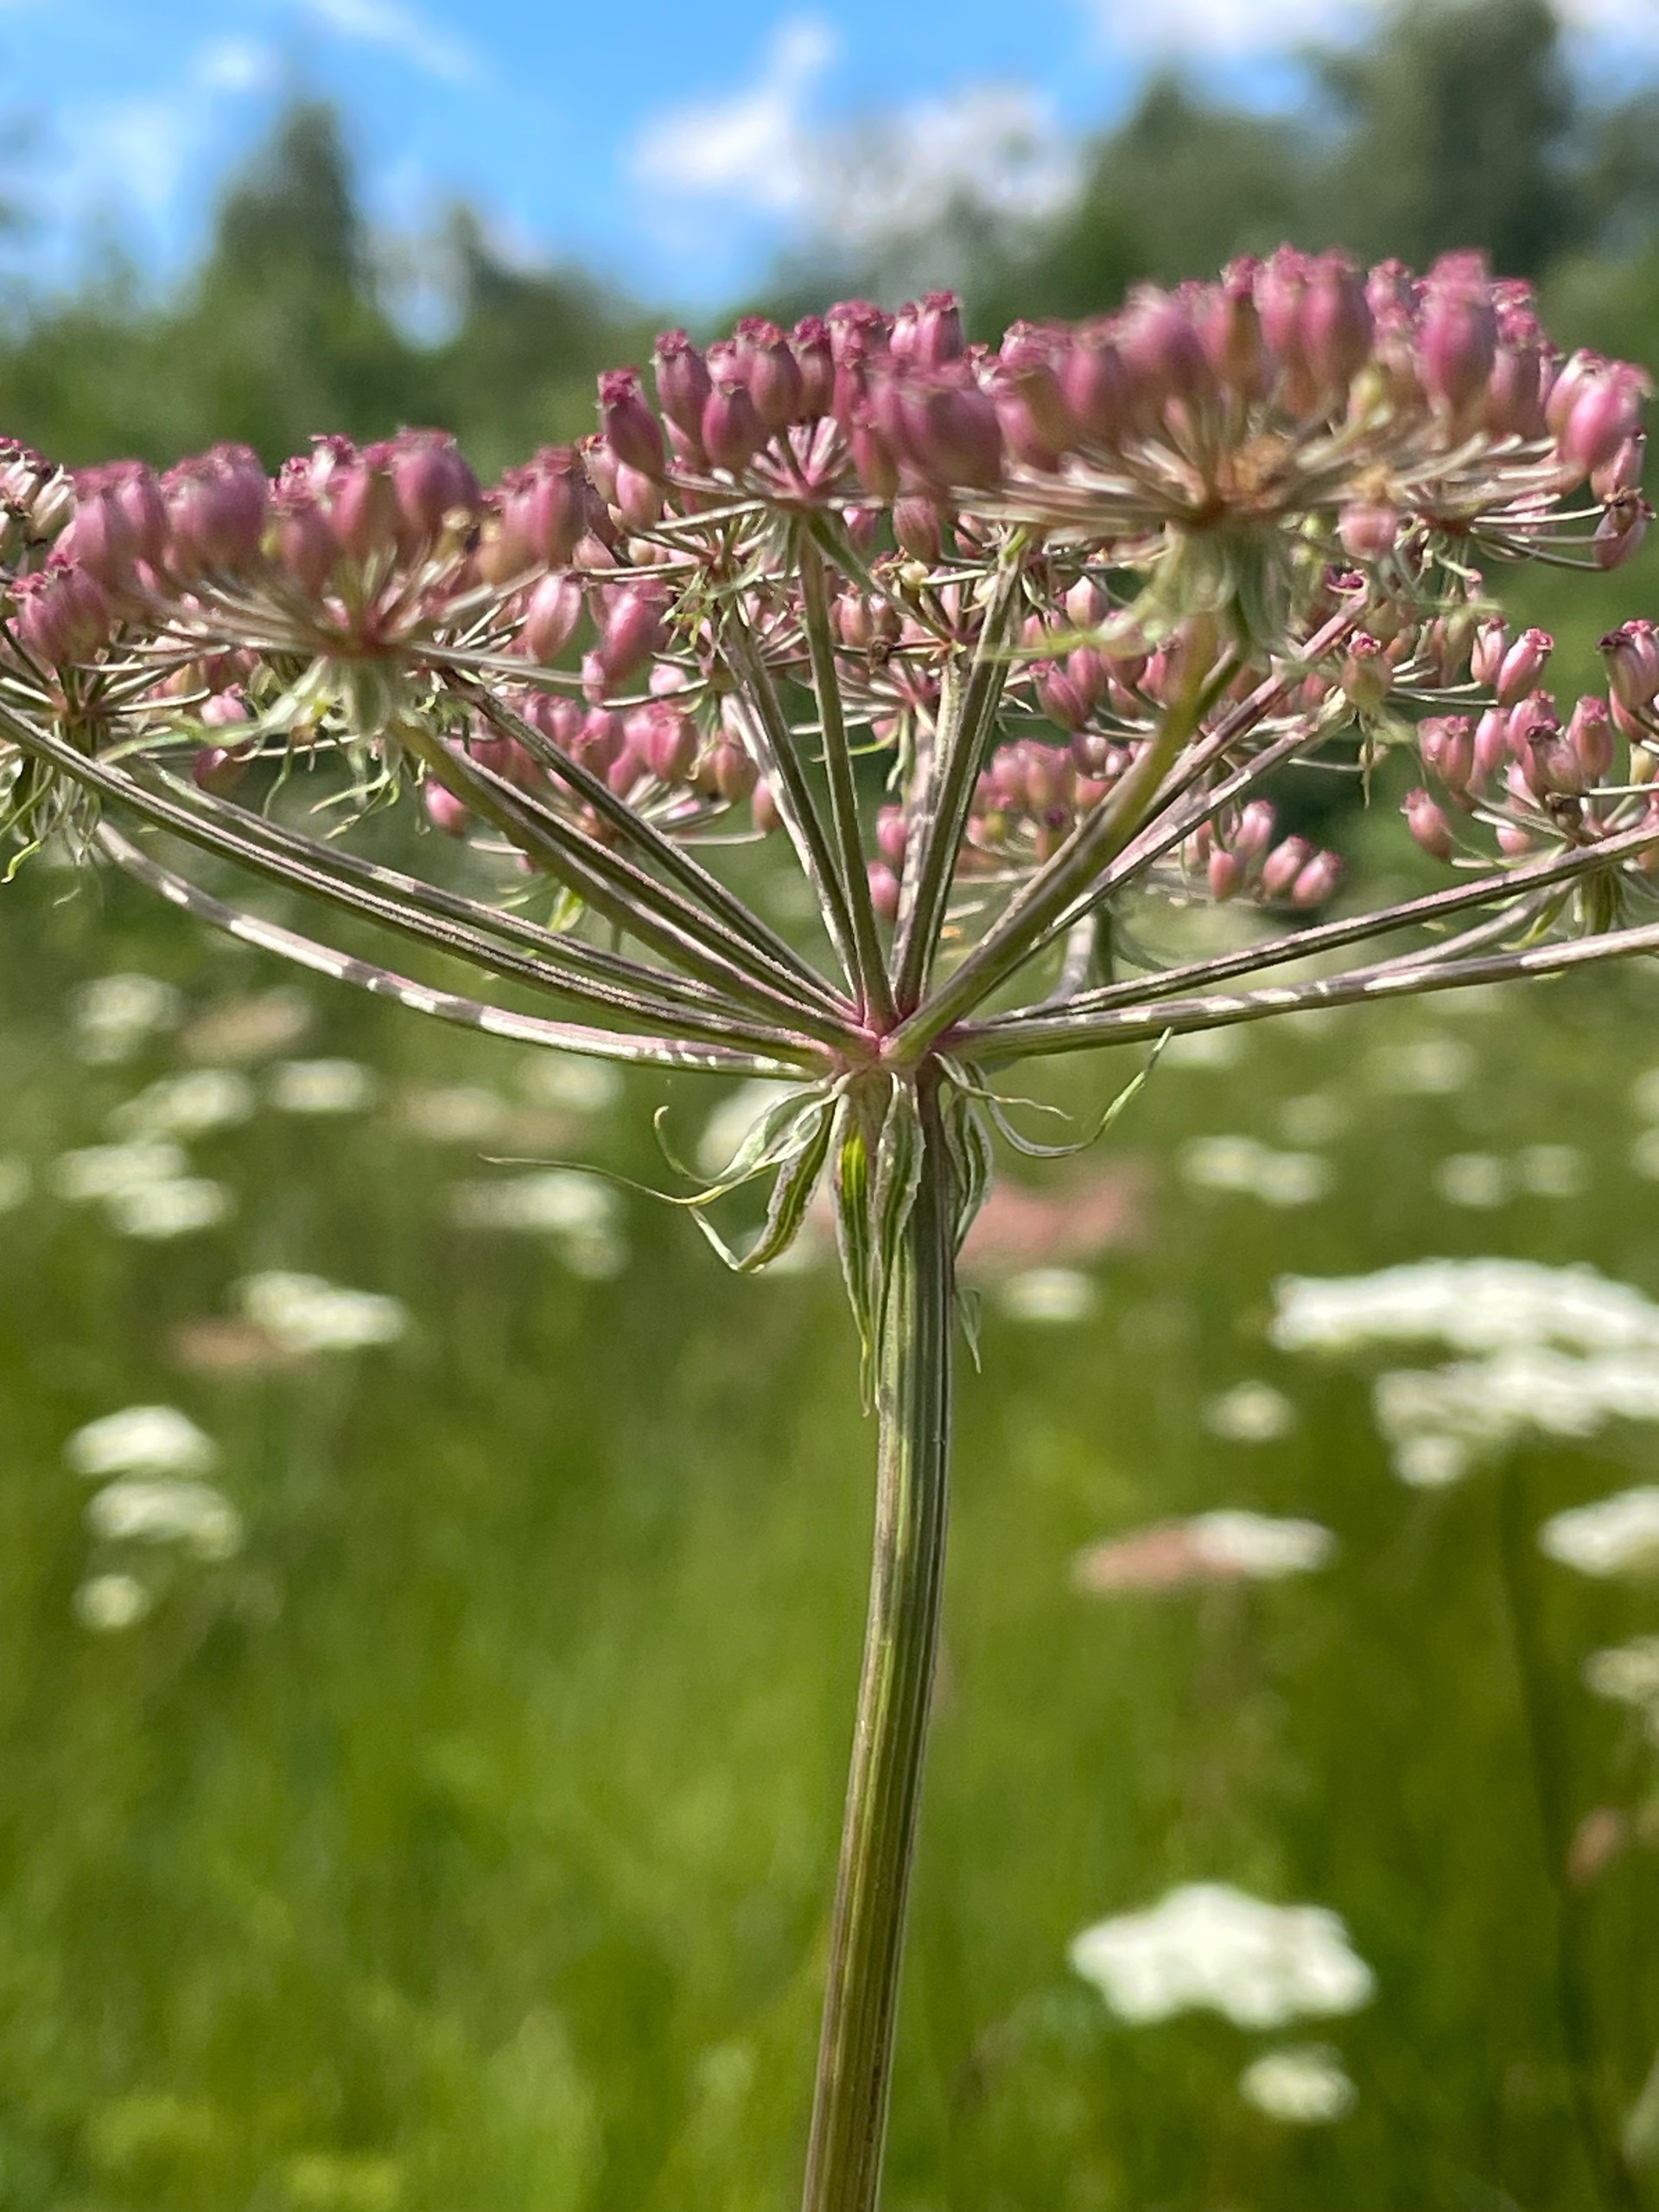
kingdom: Plantae
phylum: Tracheophyta
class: Magnoliopsida
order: Apiales
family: Apiaceae
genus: Thysselinum
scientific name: Thysselinum palustre
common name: Kær-svovlrod
